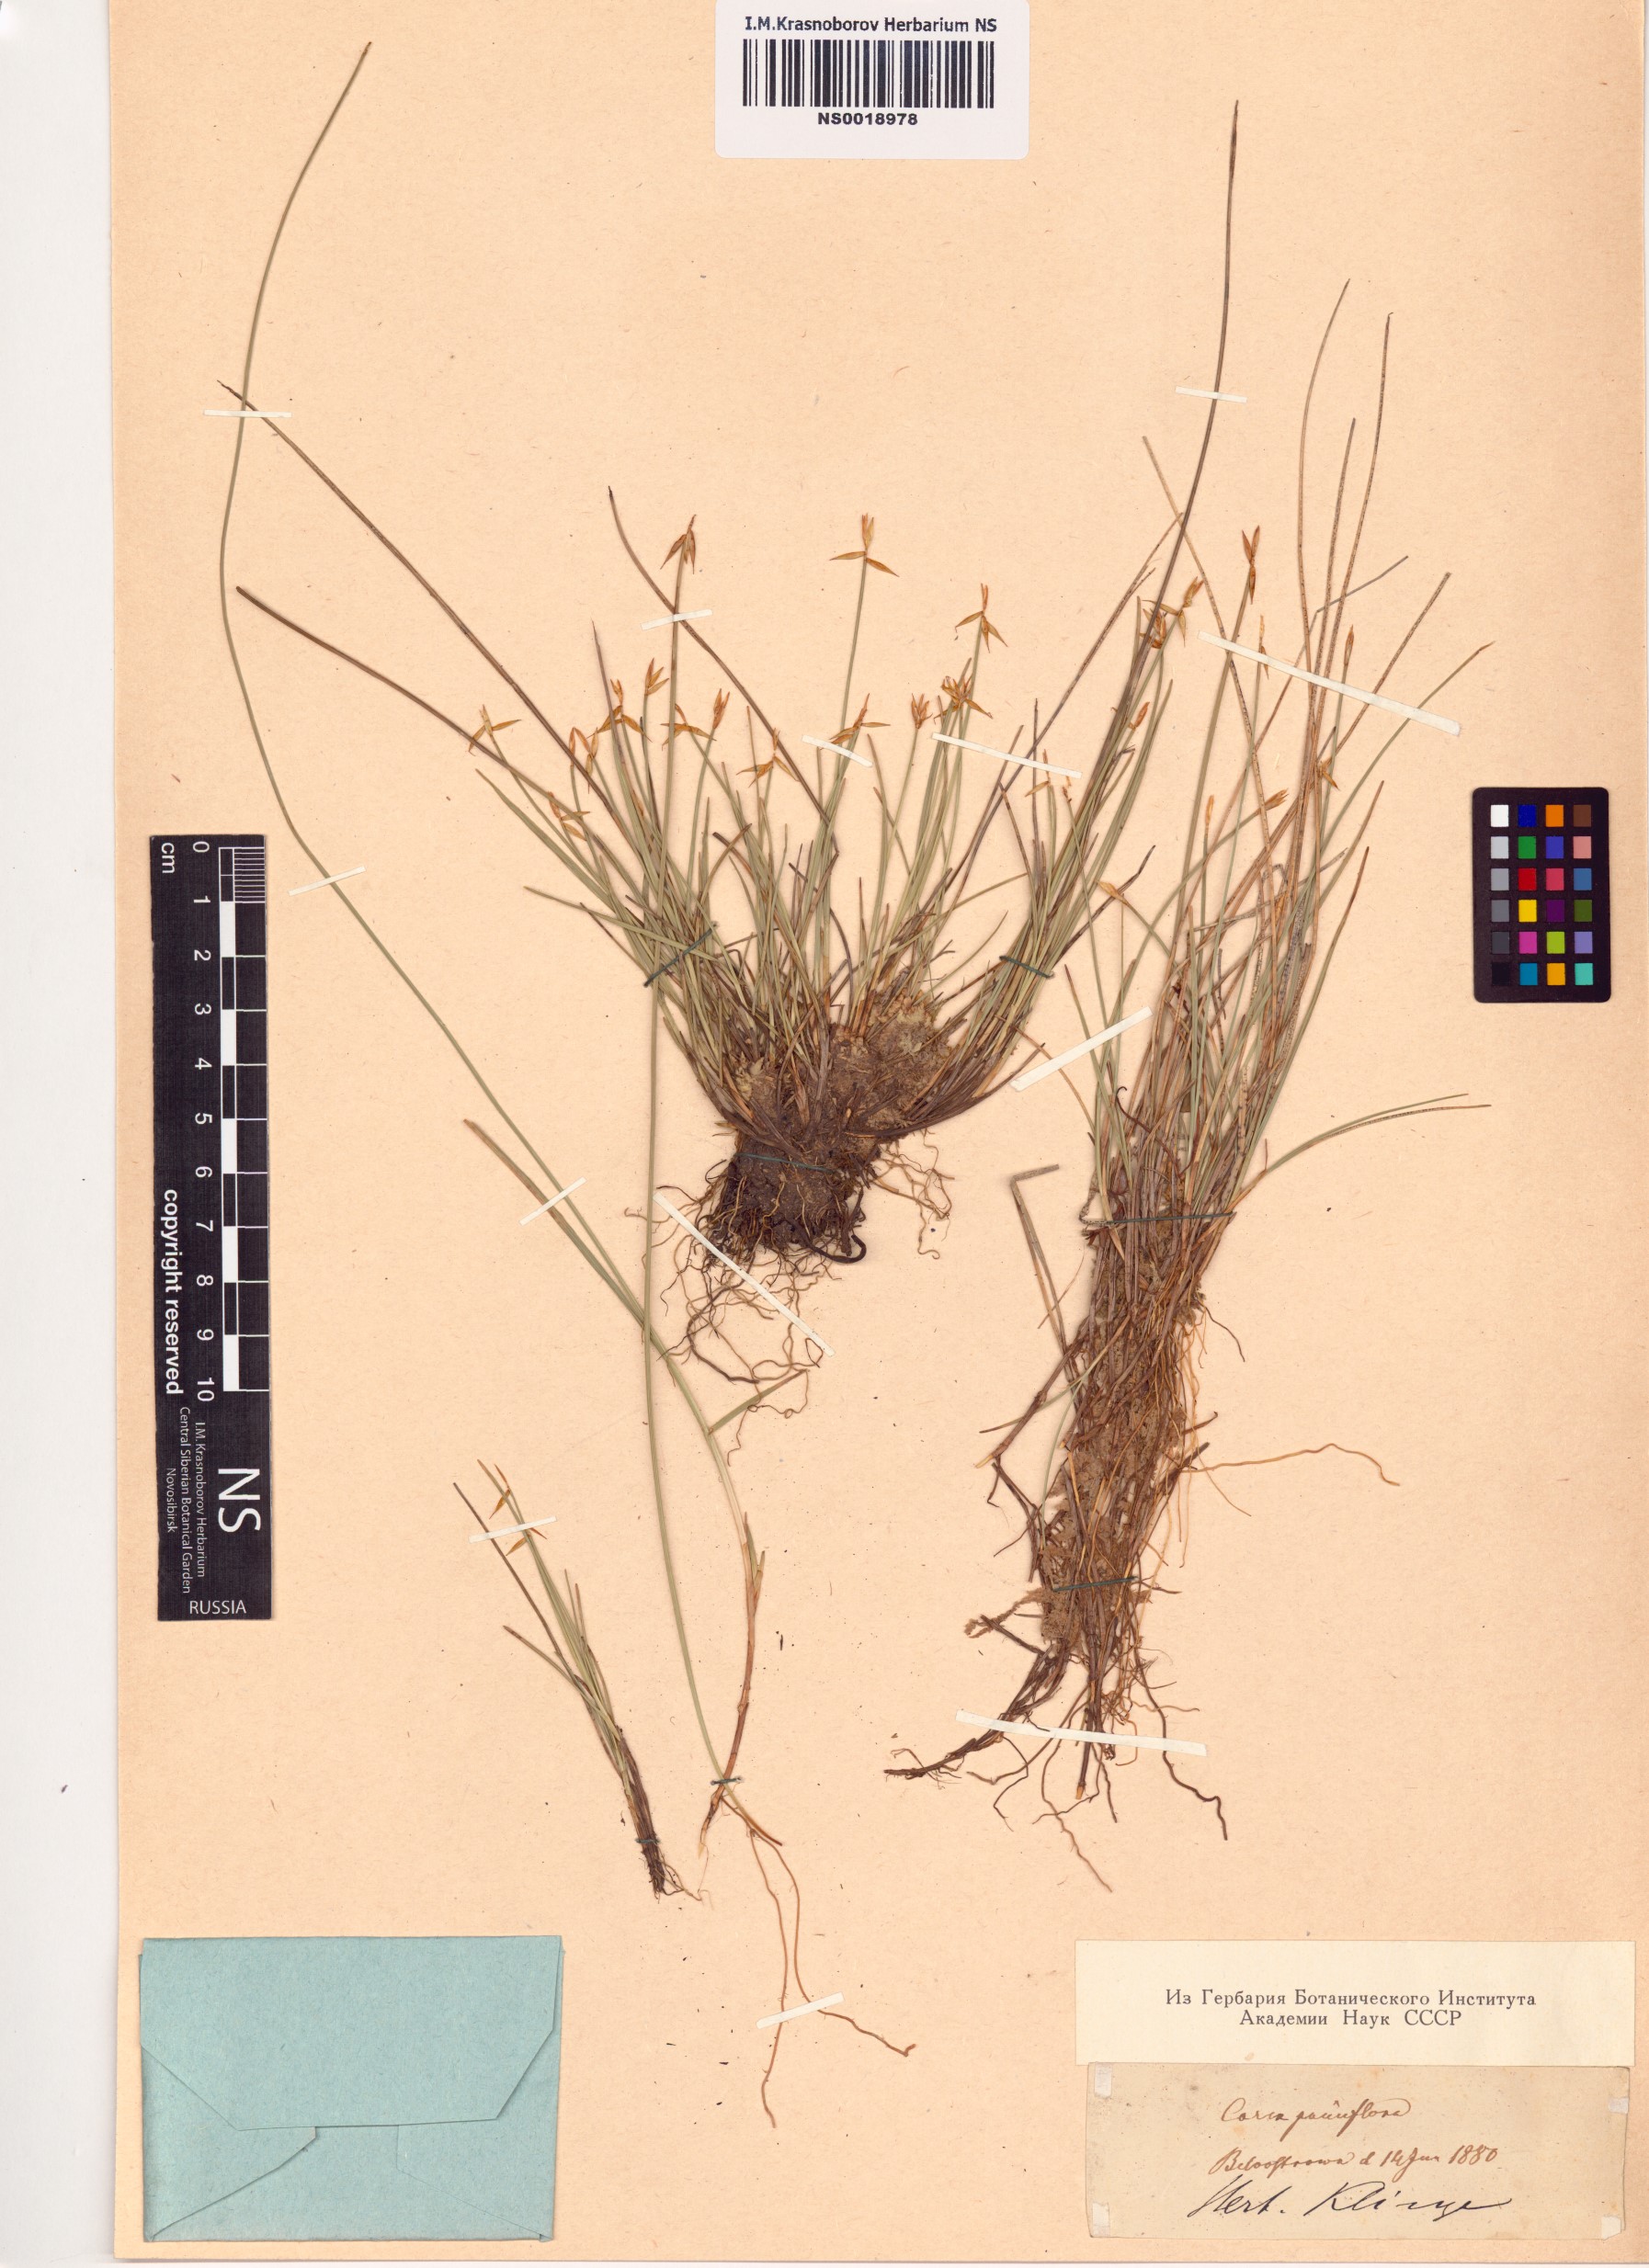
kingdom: Plantae
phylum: Tracheophyta
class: Liliopsida
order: Poales
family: Cyperaceae
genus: Carex
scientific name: Carex pauciflora
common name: Few-flowered sedge
